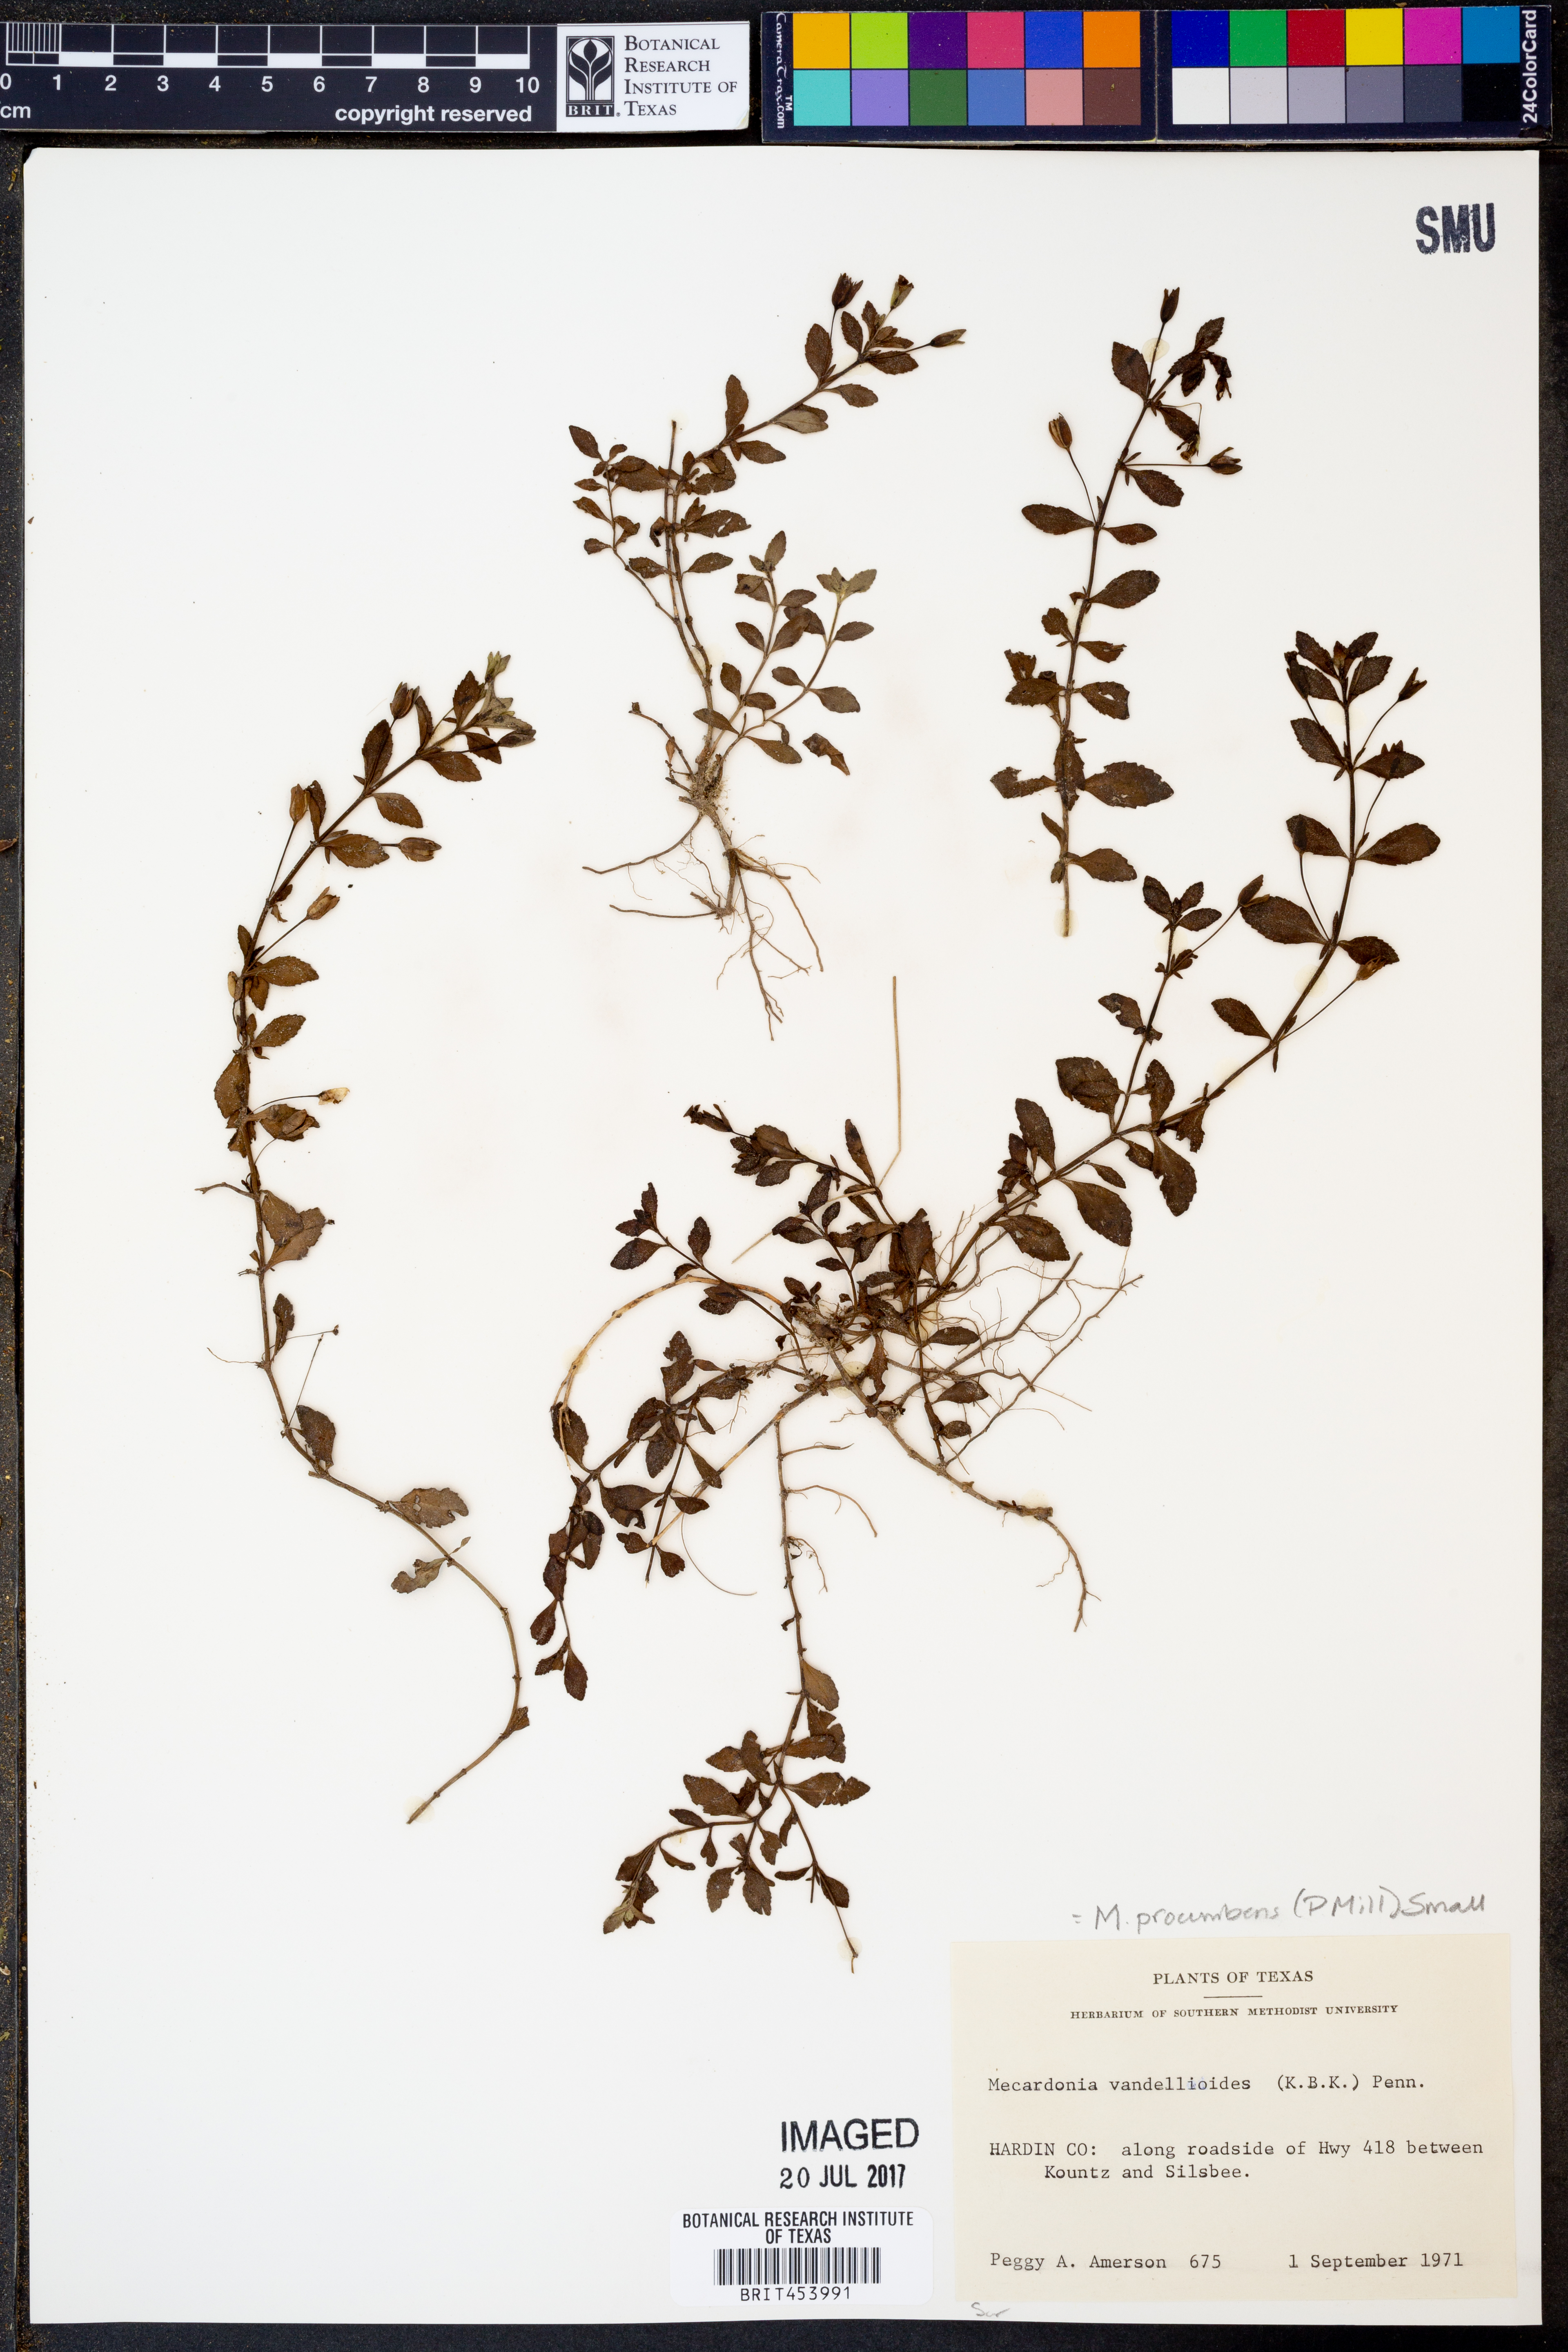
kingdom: Plantae
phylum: Tracheophyta
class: Magnoliopsida
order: Lamiales
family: Plantaginaceae
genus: Mecardonia
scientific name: Mecardonia procumbens
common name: Baby jump-up
